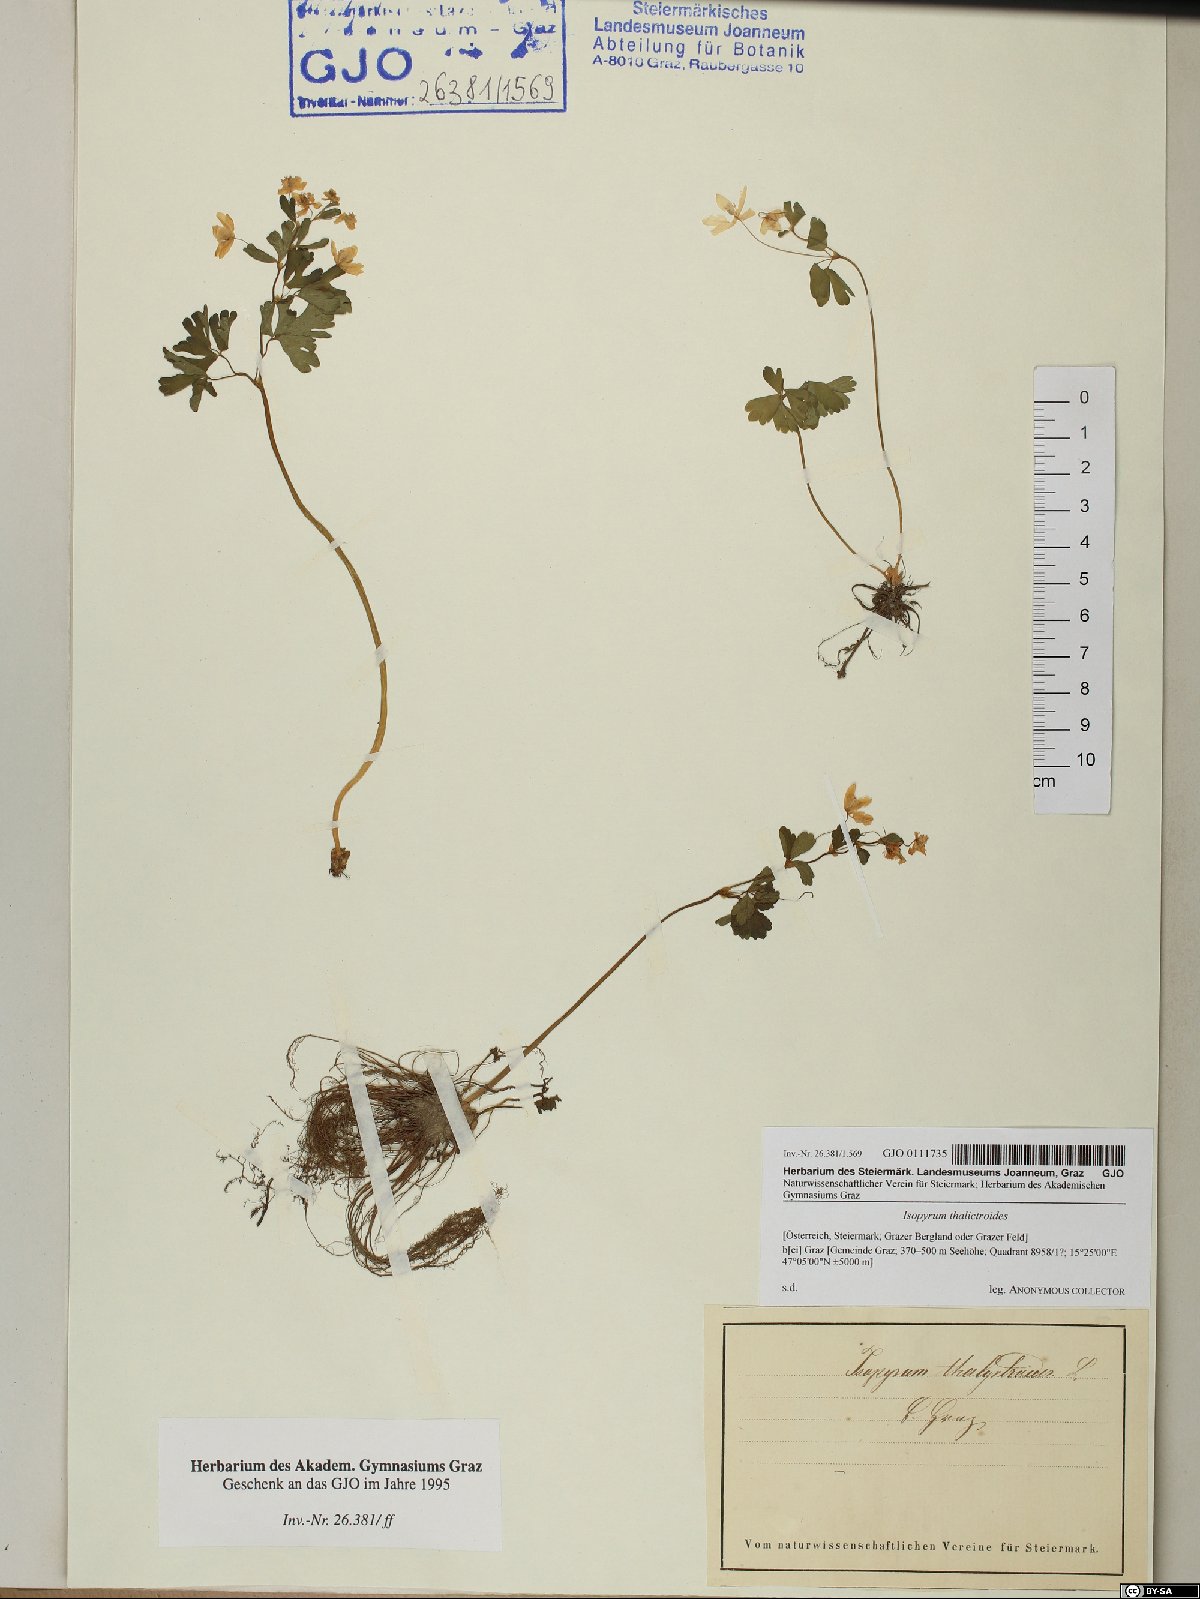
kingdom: Plantae
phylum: Tracheophyta
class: Magnoliopsida
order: Ranunculales
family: Ranunculaceae
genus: Isopyrum
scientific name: Isopyrum thalictroides
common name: Isopyrum
